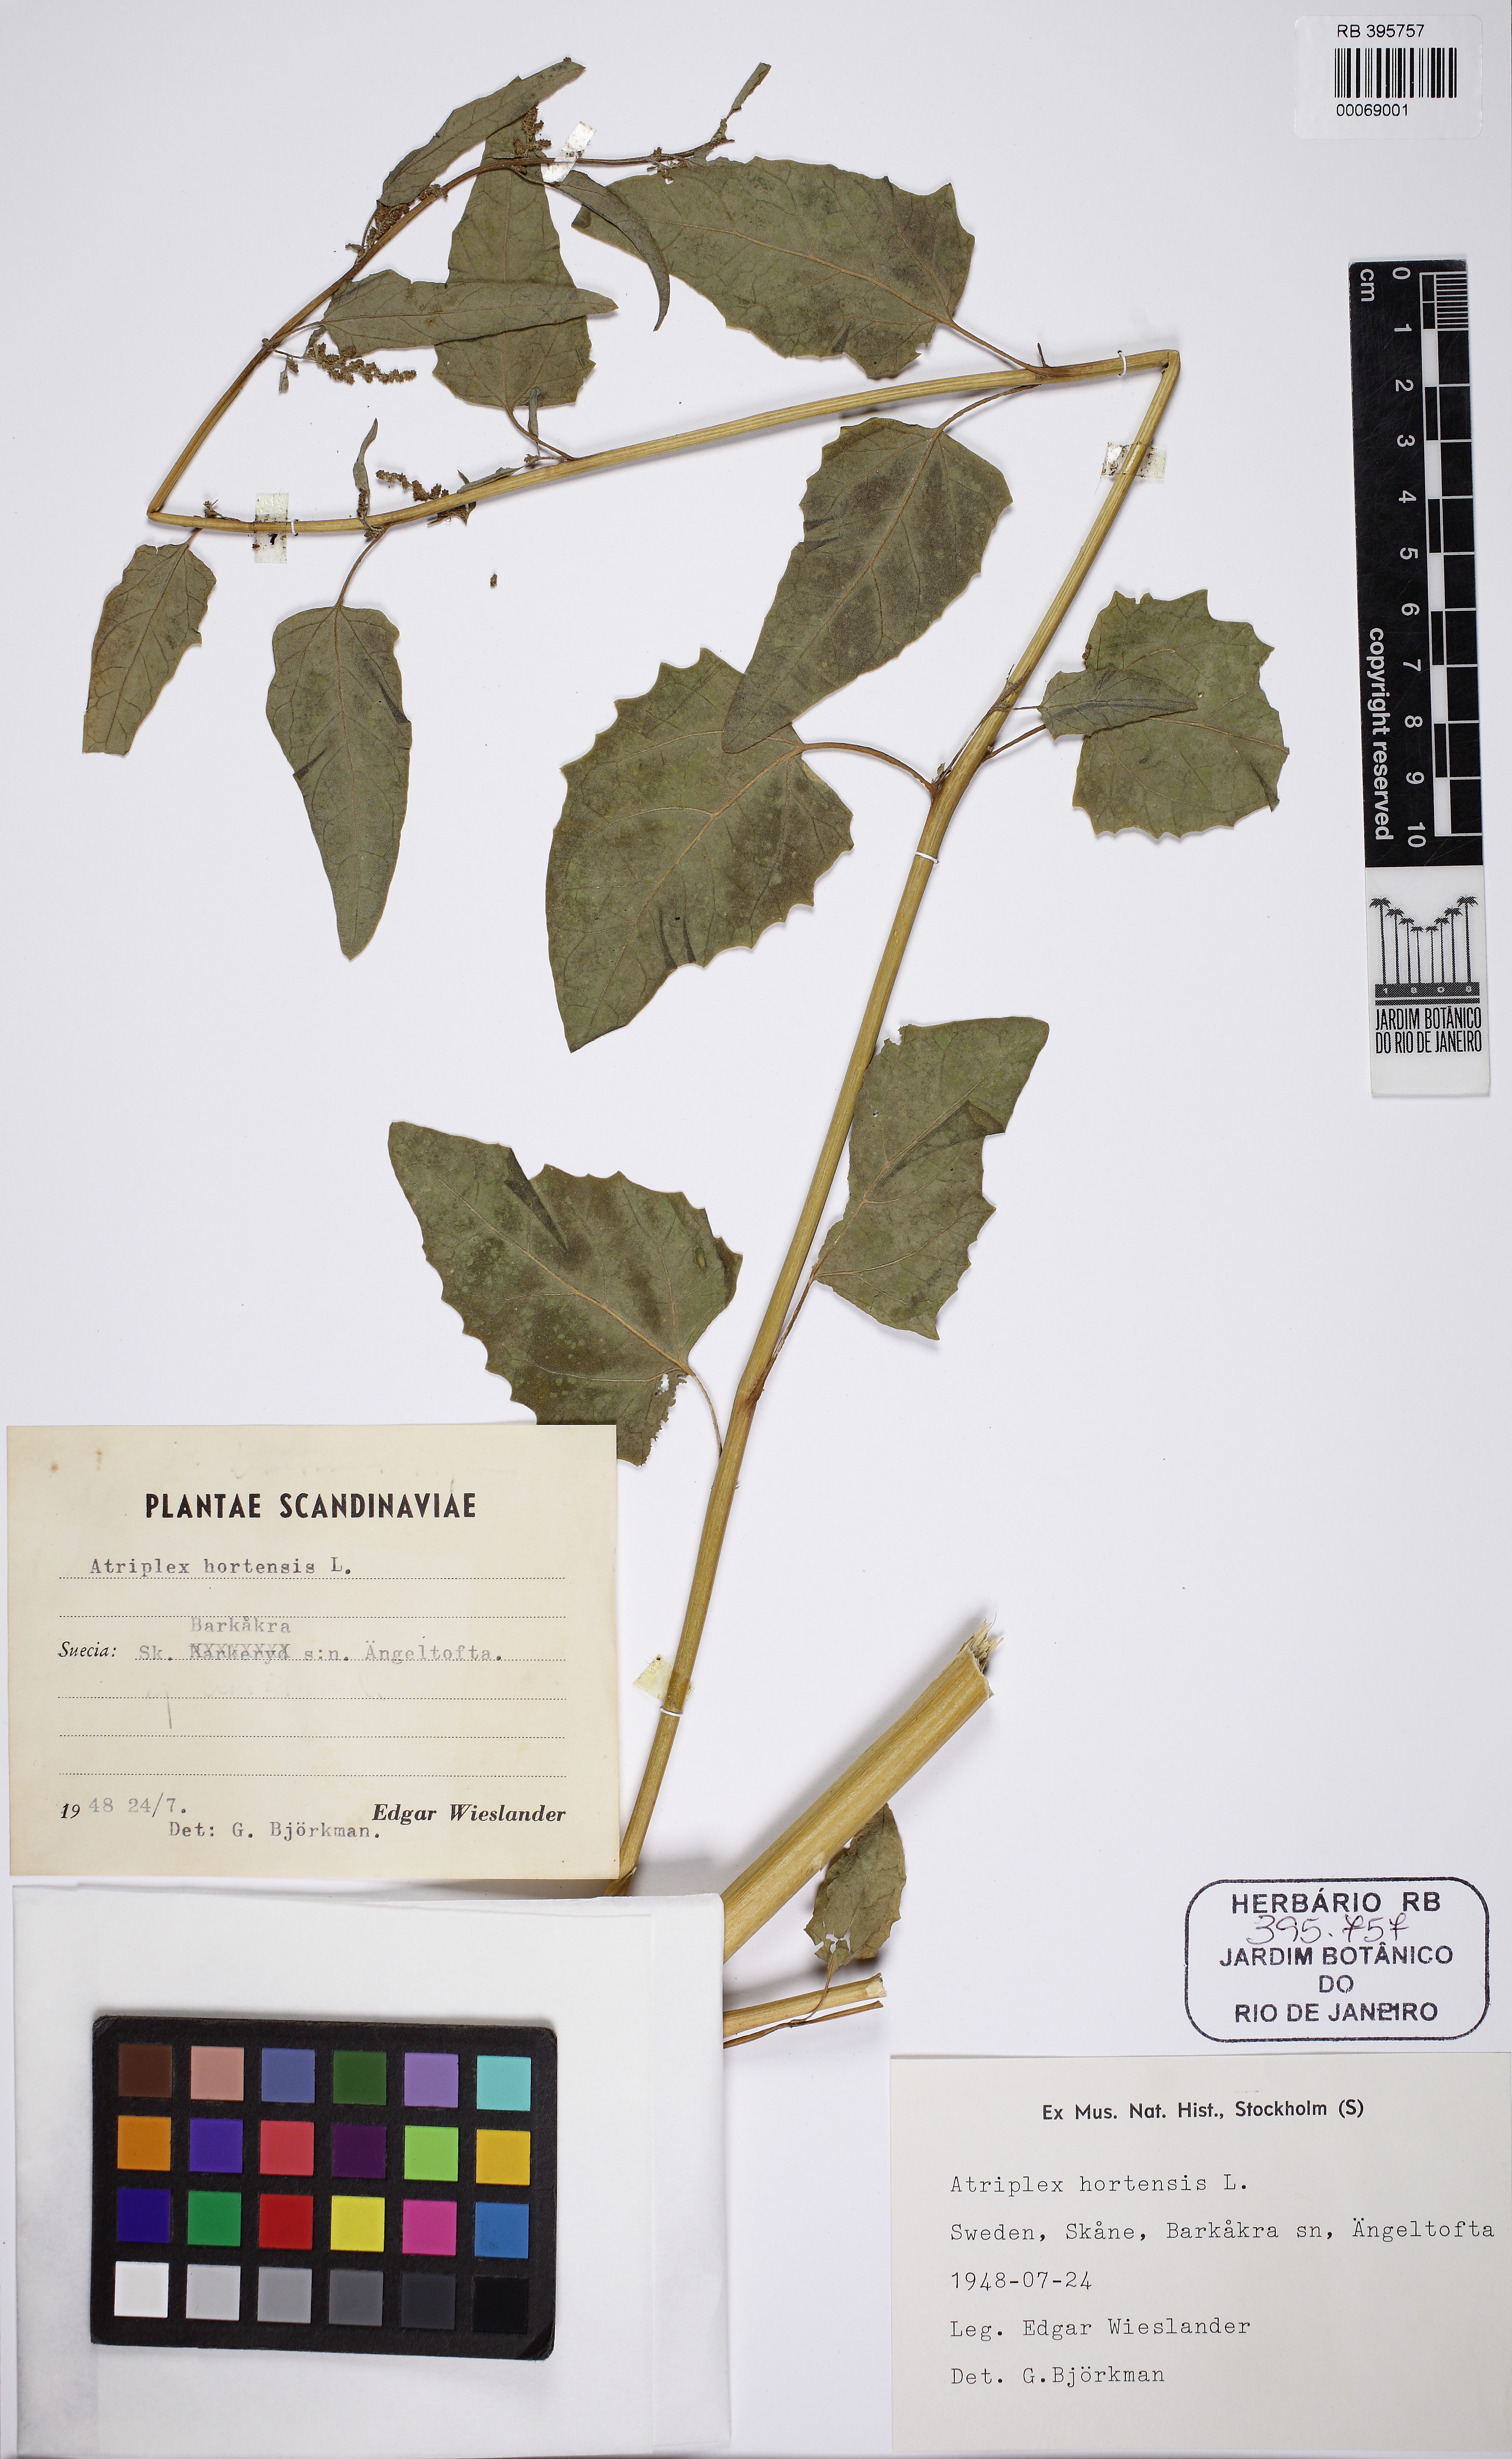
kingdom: Plantae
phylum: Tracheophyta
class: Magnoliopsida
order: Caryophyllales
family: Amaranthaceae
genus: Atriplex
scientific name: Atriplex hortensis
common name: Garden orache
